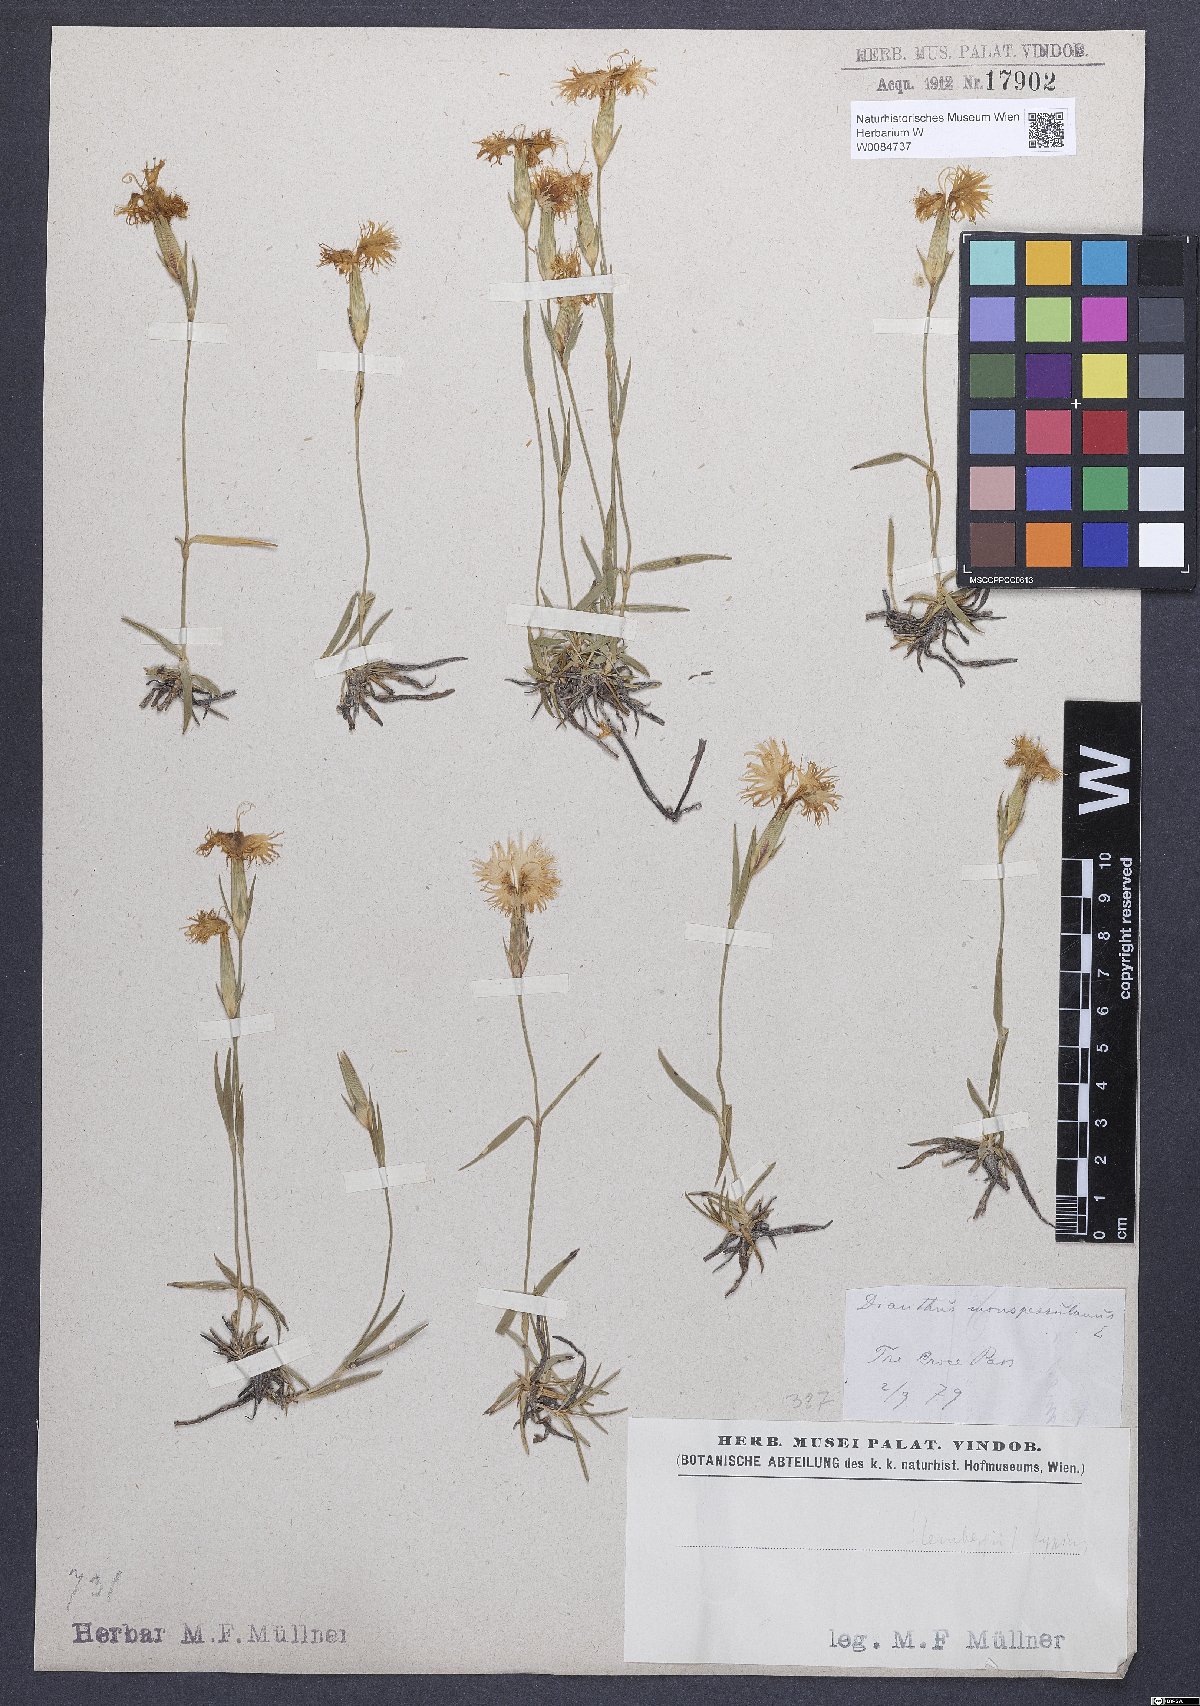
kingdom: Plantae
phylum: Tracheophyta
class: Magnoliopsida
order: Caryophyllales
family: Caryophyllaceae
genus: Dianthus
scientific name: Dianthus hyssopifolius
